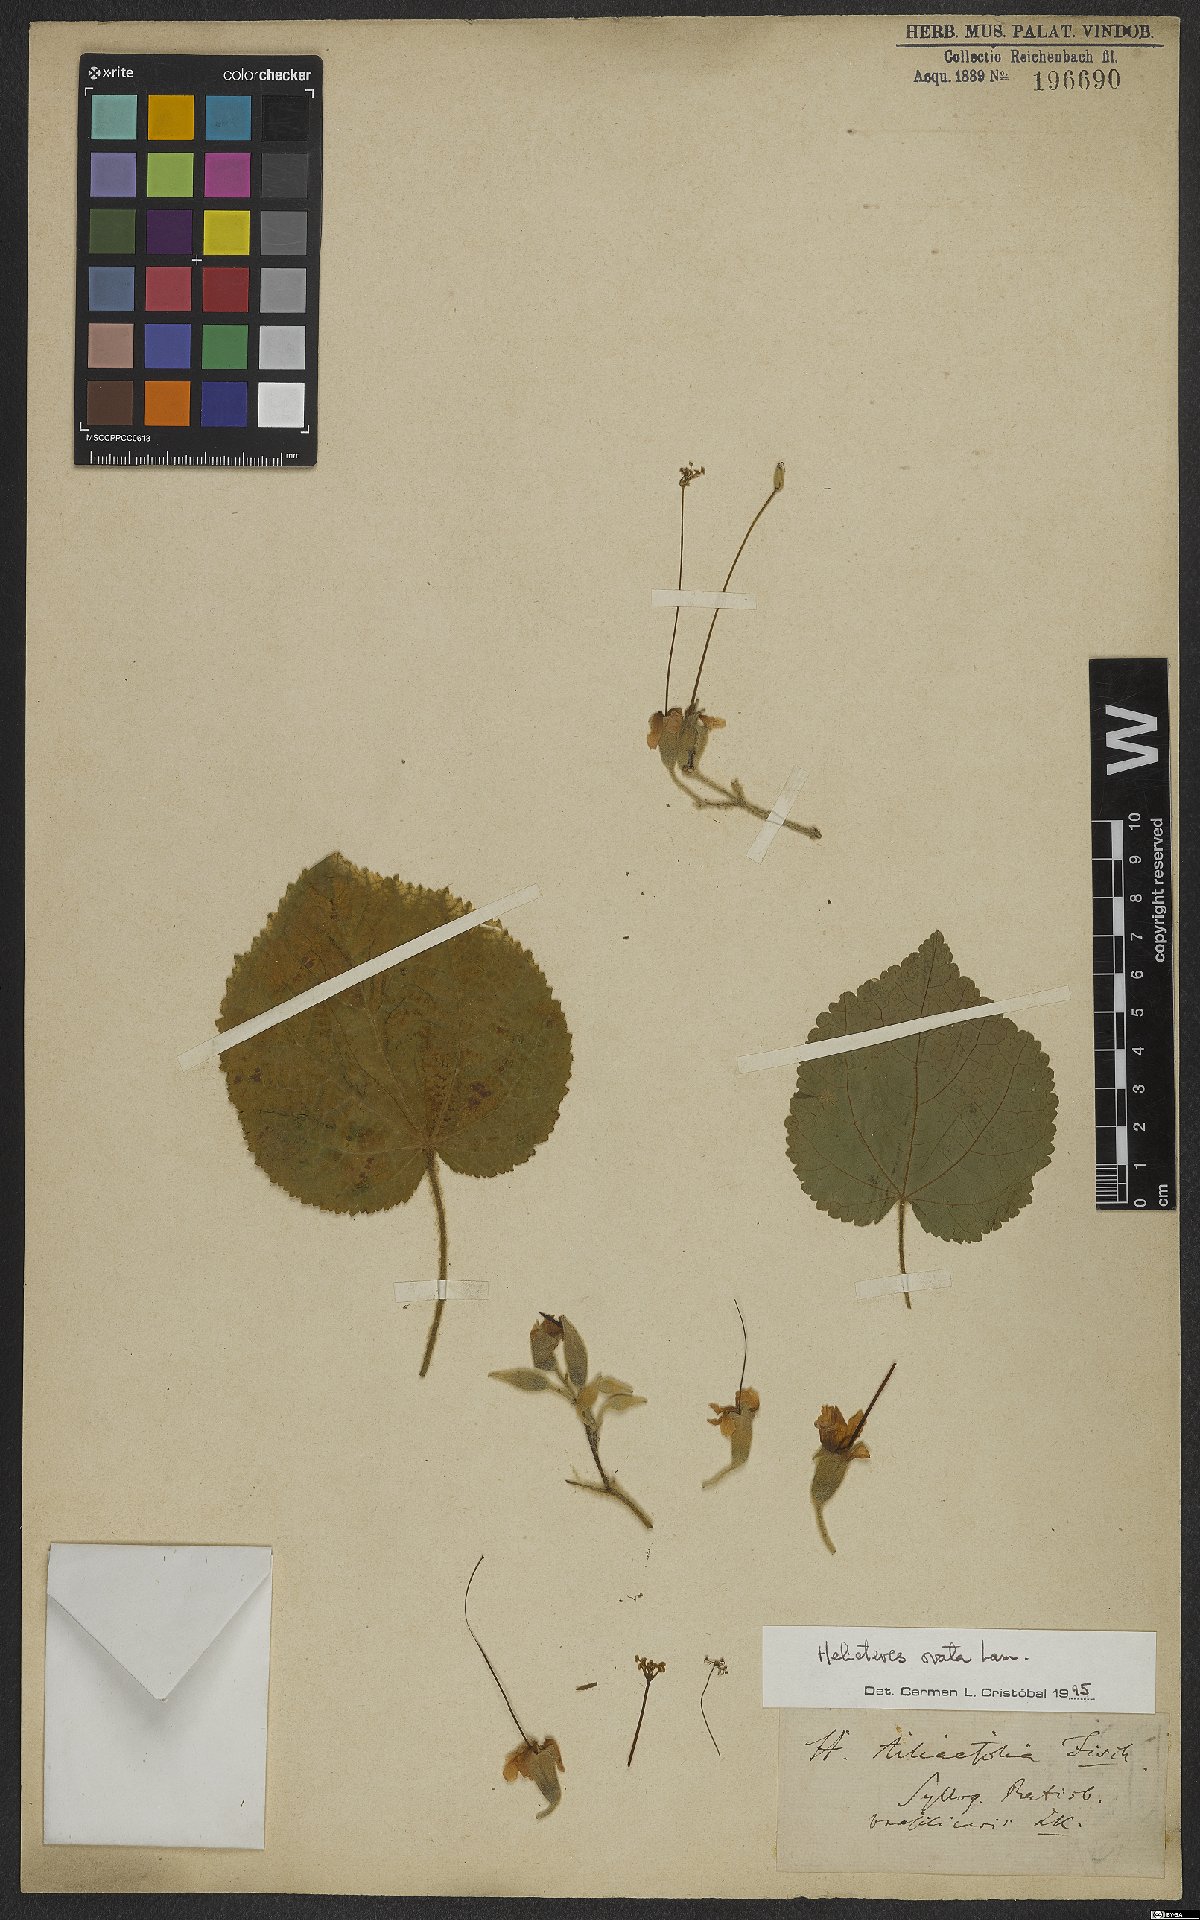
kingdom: Plantae
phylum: Tracheophyta
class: Magnoliopsida
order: Malvales
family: Malvaceae
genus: Helicteres
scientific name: Helicteres ovata
